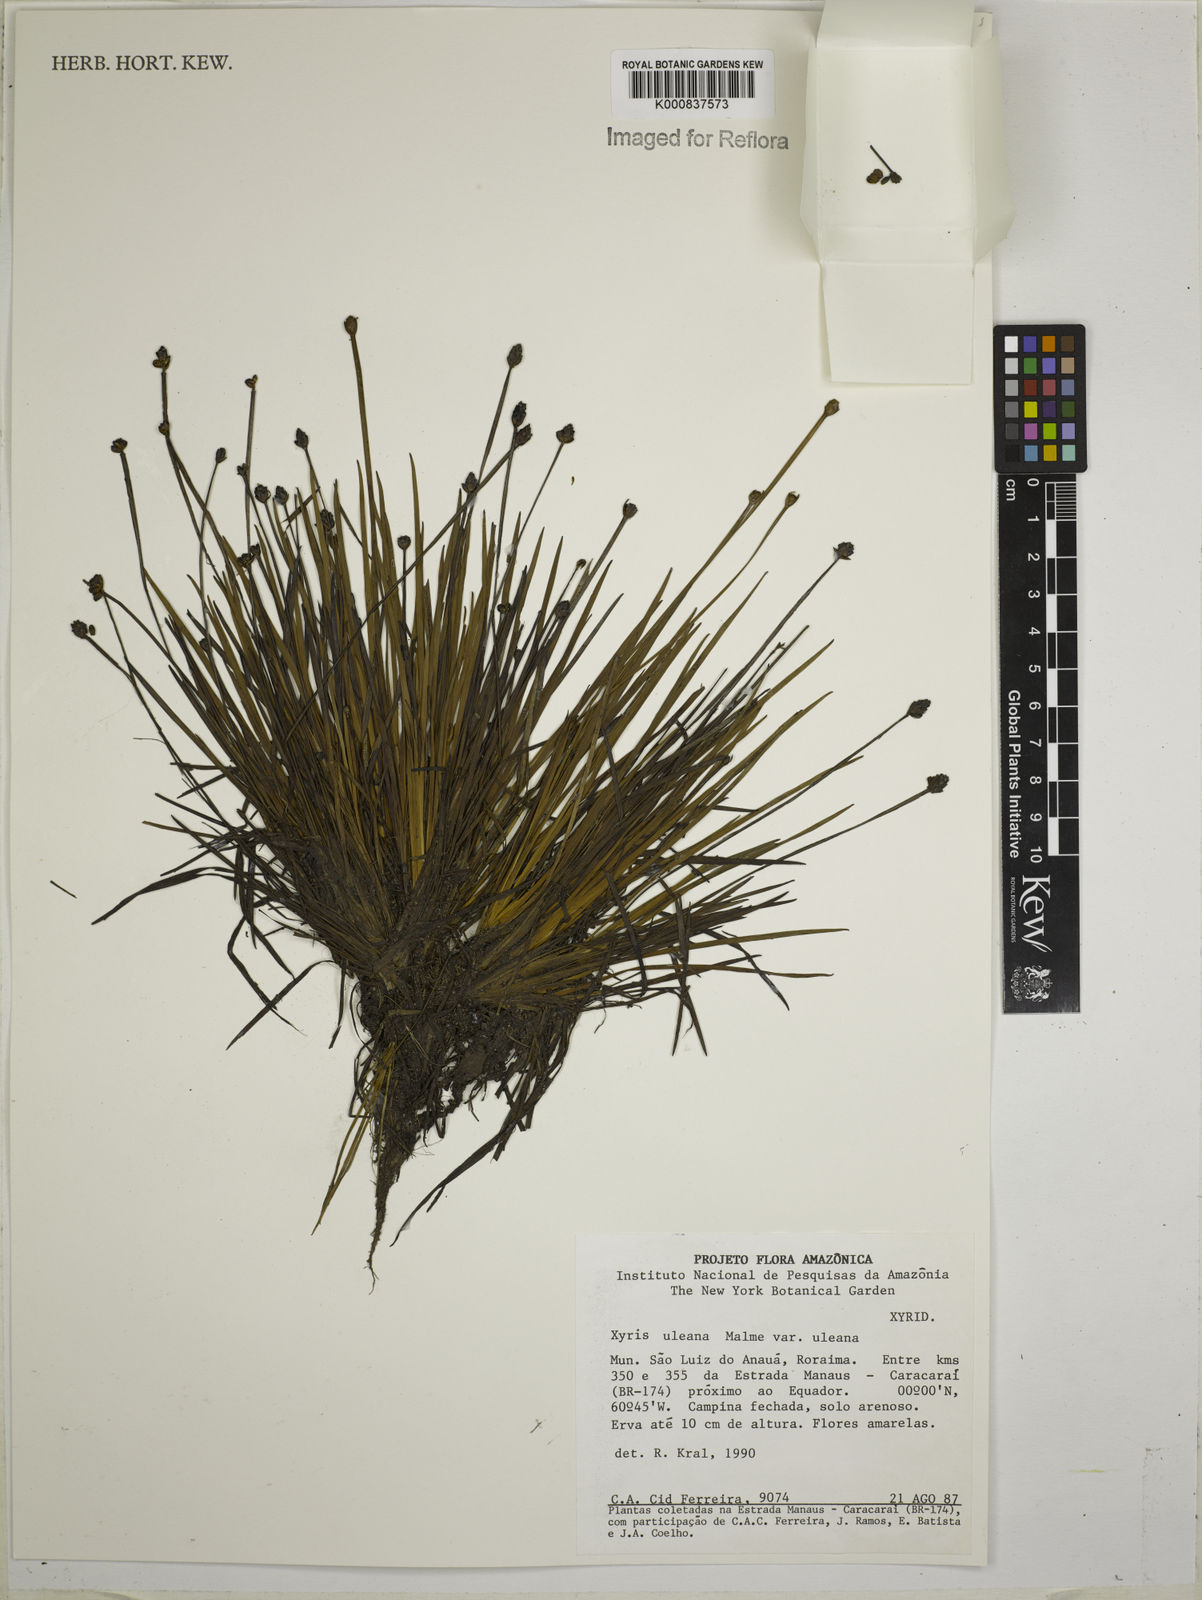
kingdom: Plantae
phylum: Tracheophyta
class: Liliopsida
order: Poales
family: Xyridaceae
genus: Xyris
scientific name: Xyris uleana
